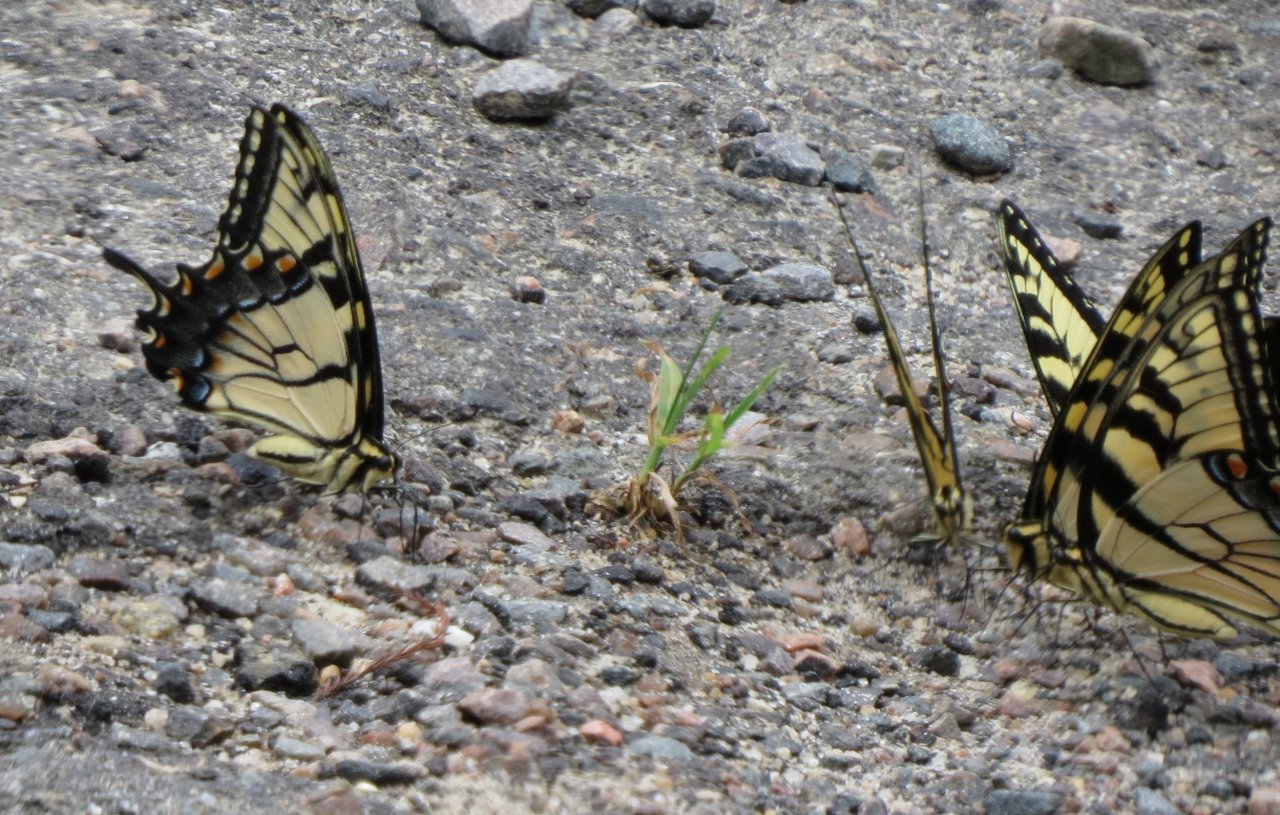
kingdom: Animalia
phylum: Arthropoda
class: Insecta
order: Lepidoptera
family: Papilionidae
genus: Pterourus
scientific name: Pterourus glaucus
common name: Eastern Tiger Swallowtail
